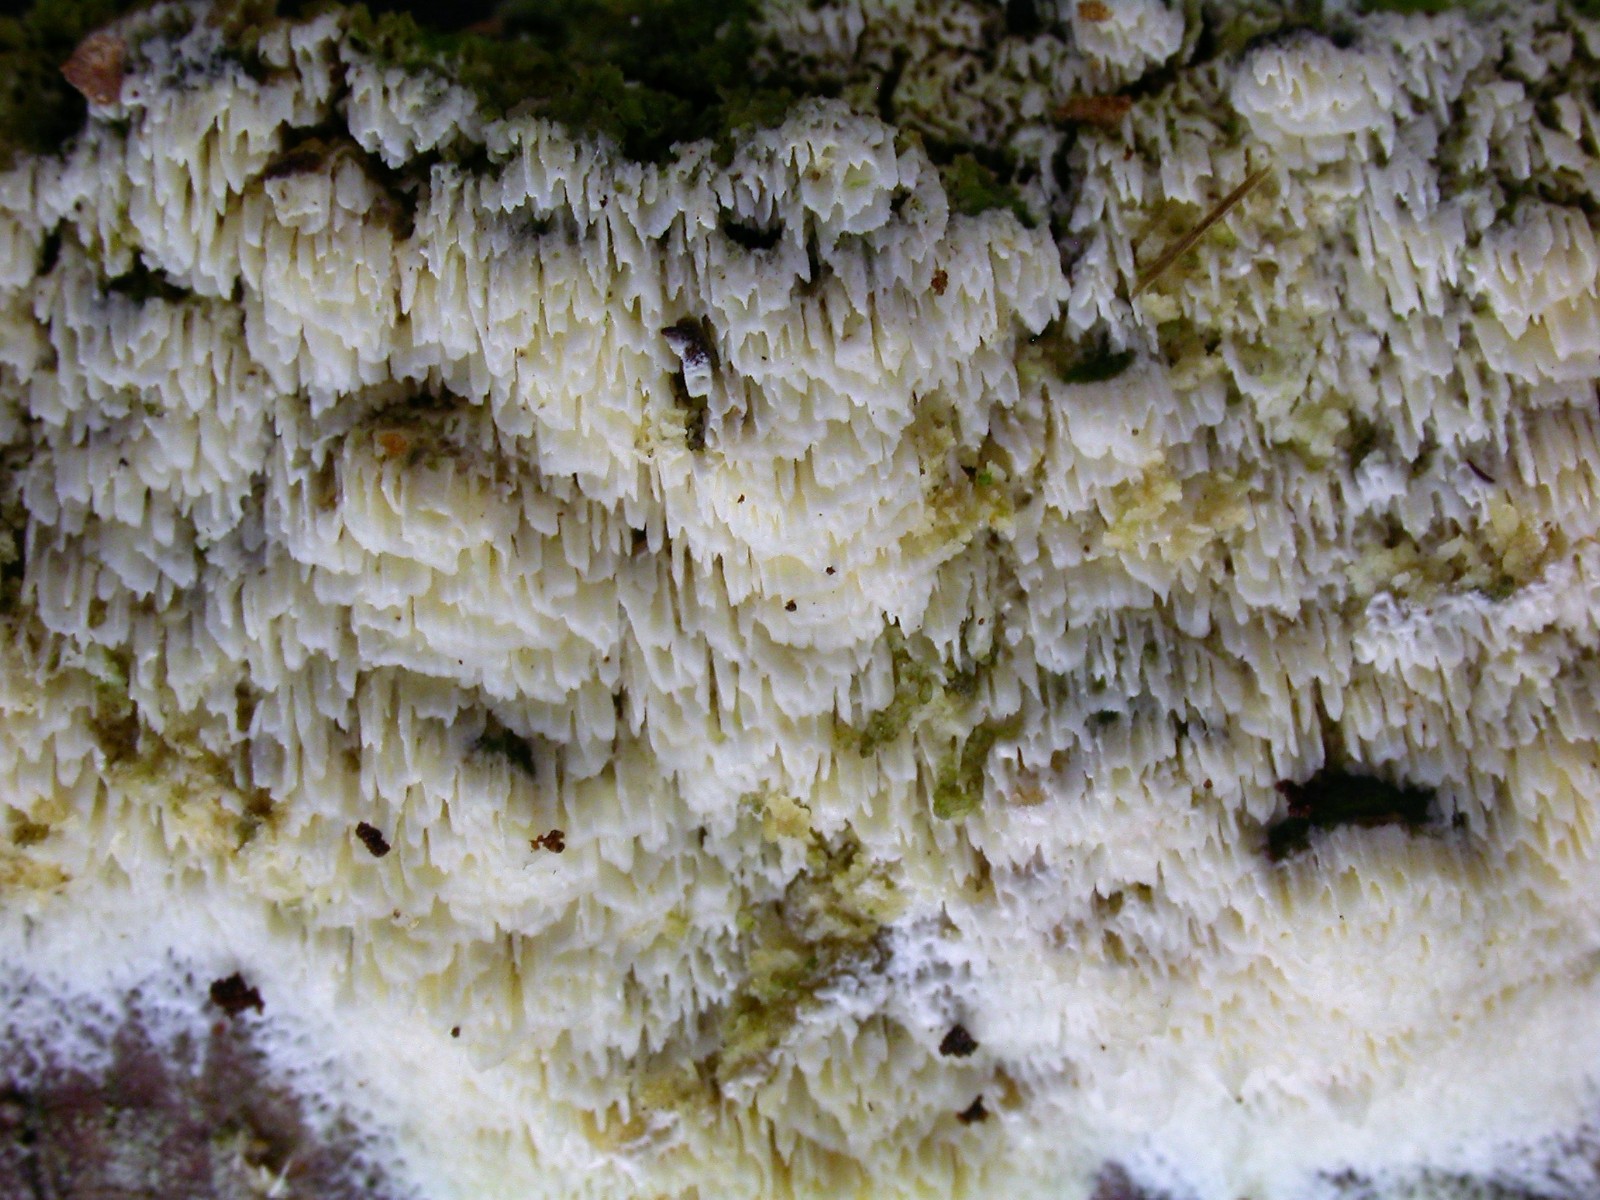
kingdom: Fungi
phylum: Basidiomycota
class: Agaricomycetes
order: Hymenochaetales
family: Schizoporaceae
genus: Schizopora
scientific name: Schizopora paradoxa
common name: hvid tandsvamp
